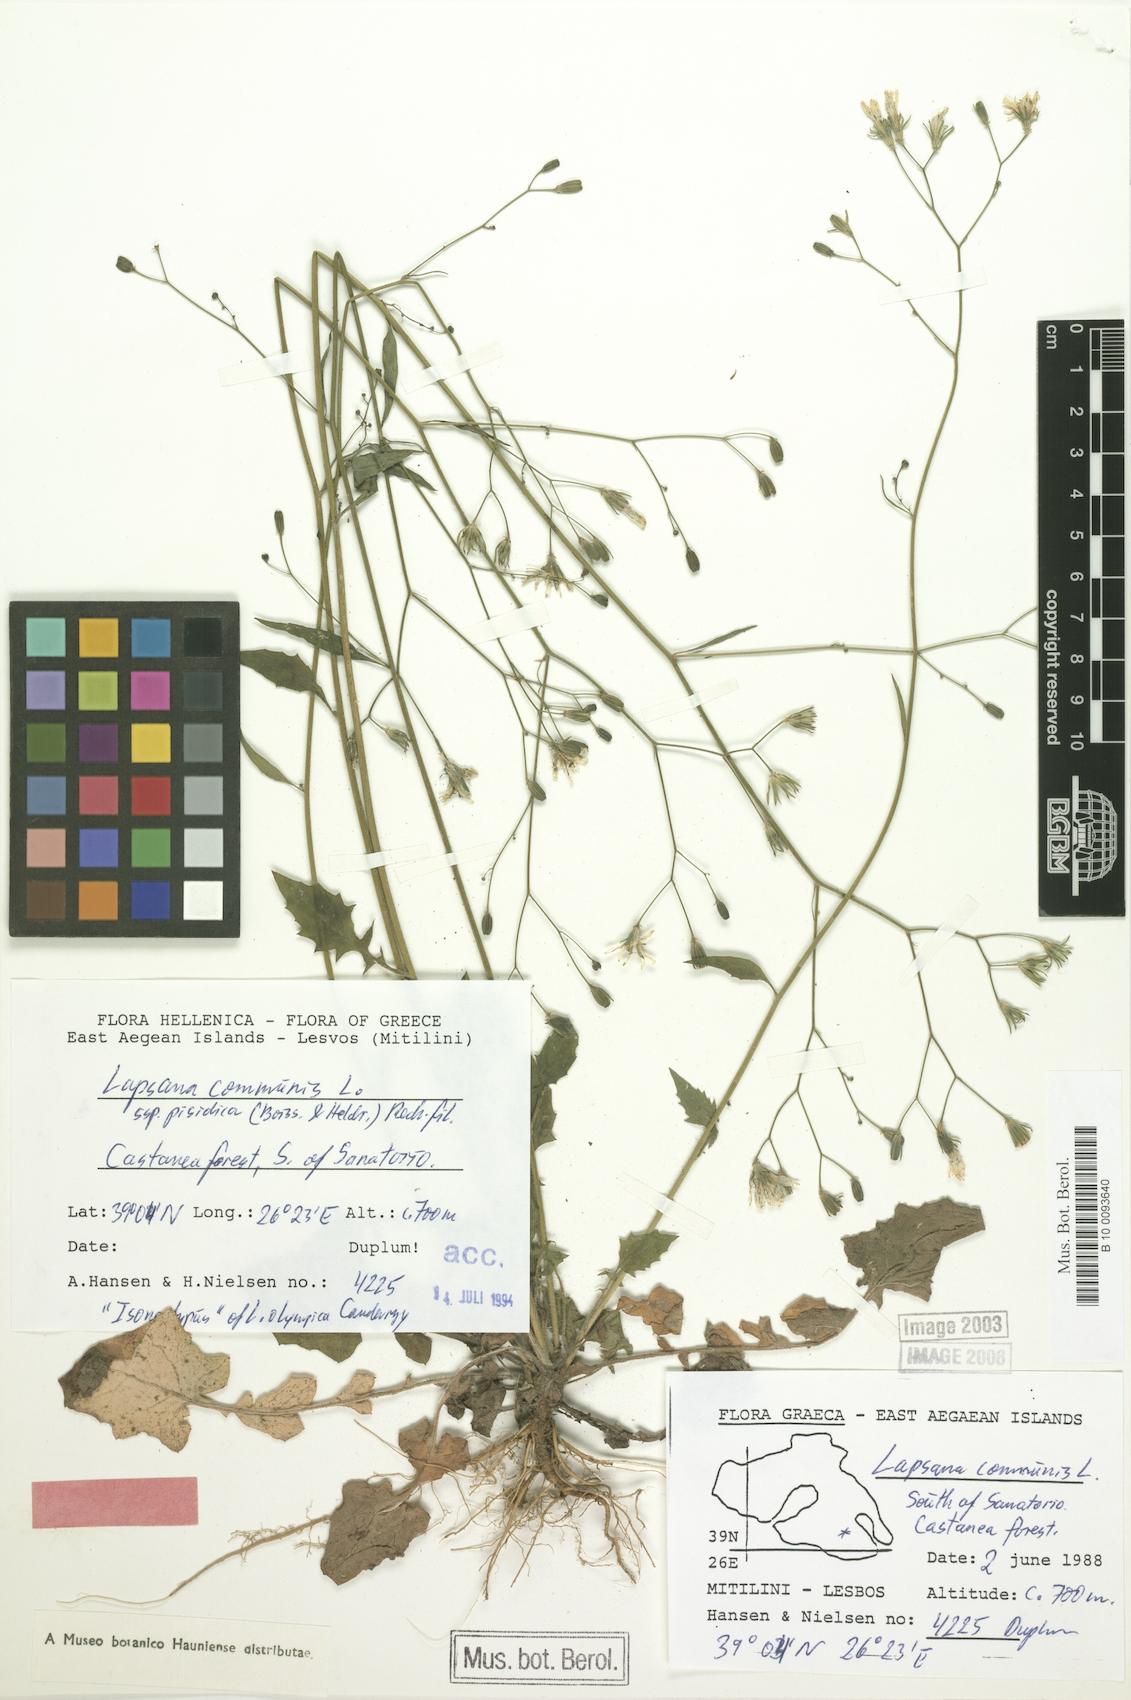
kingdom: Plantae
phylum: Tracheophyta
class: Magnoliopsida
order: Asterales
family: Asteraceae
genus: Lapsana
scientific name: Lapsana communis
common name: Nipplewort
